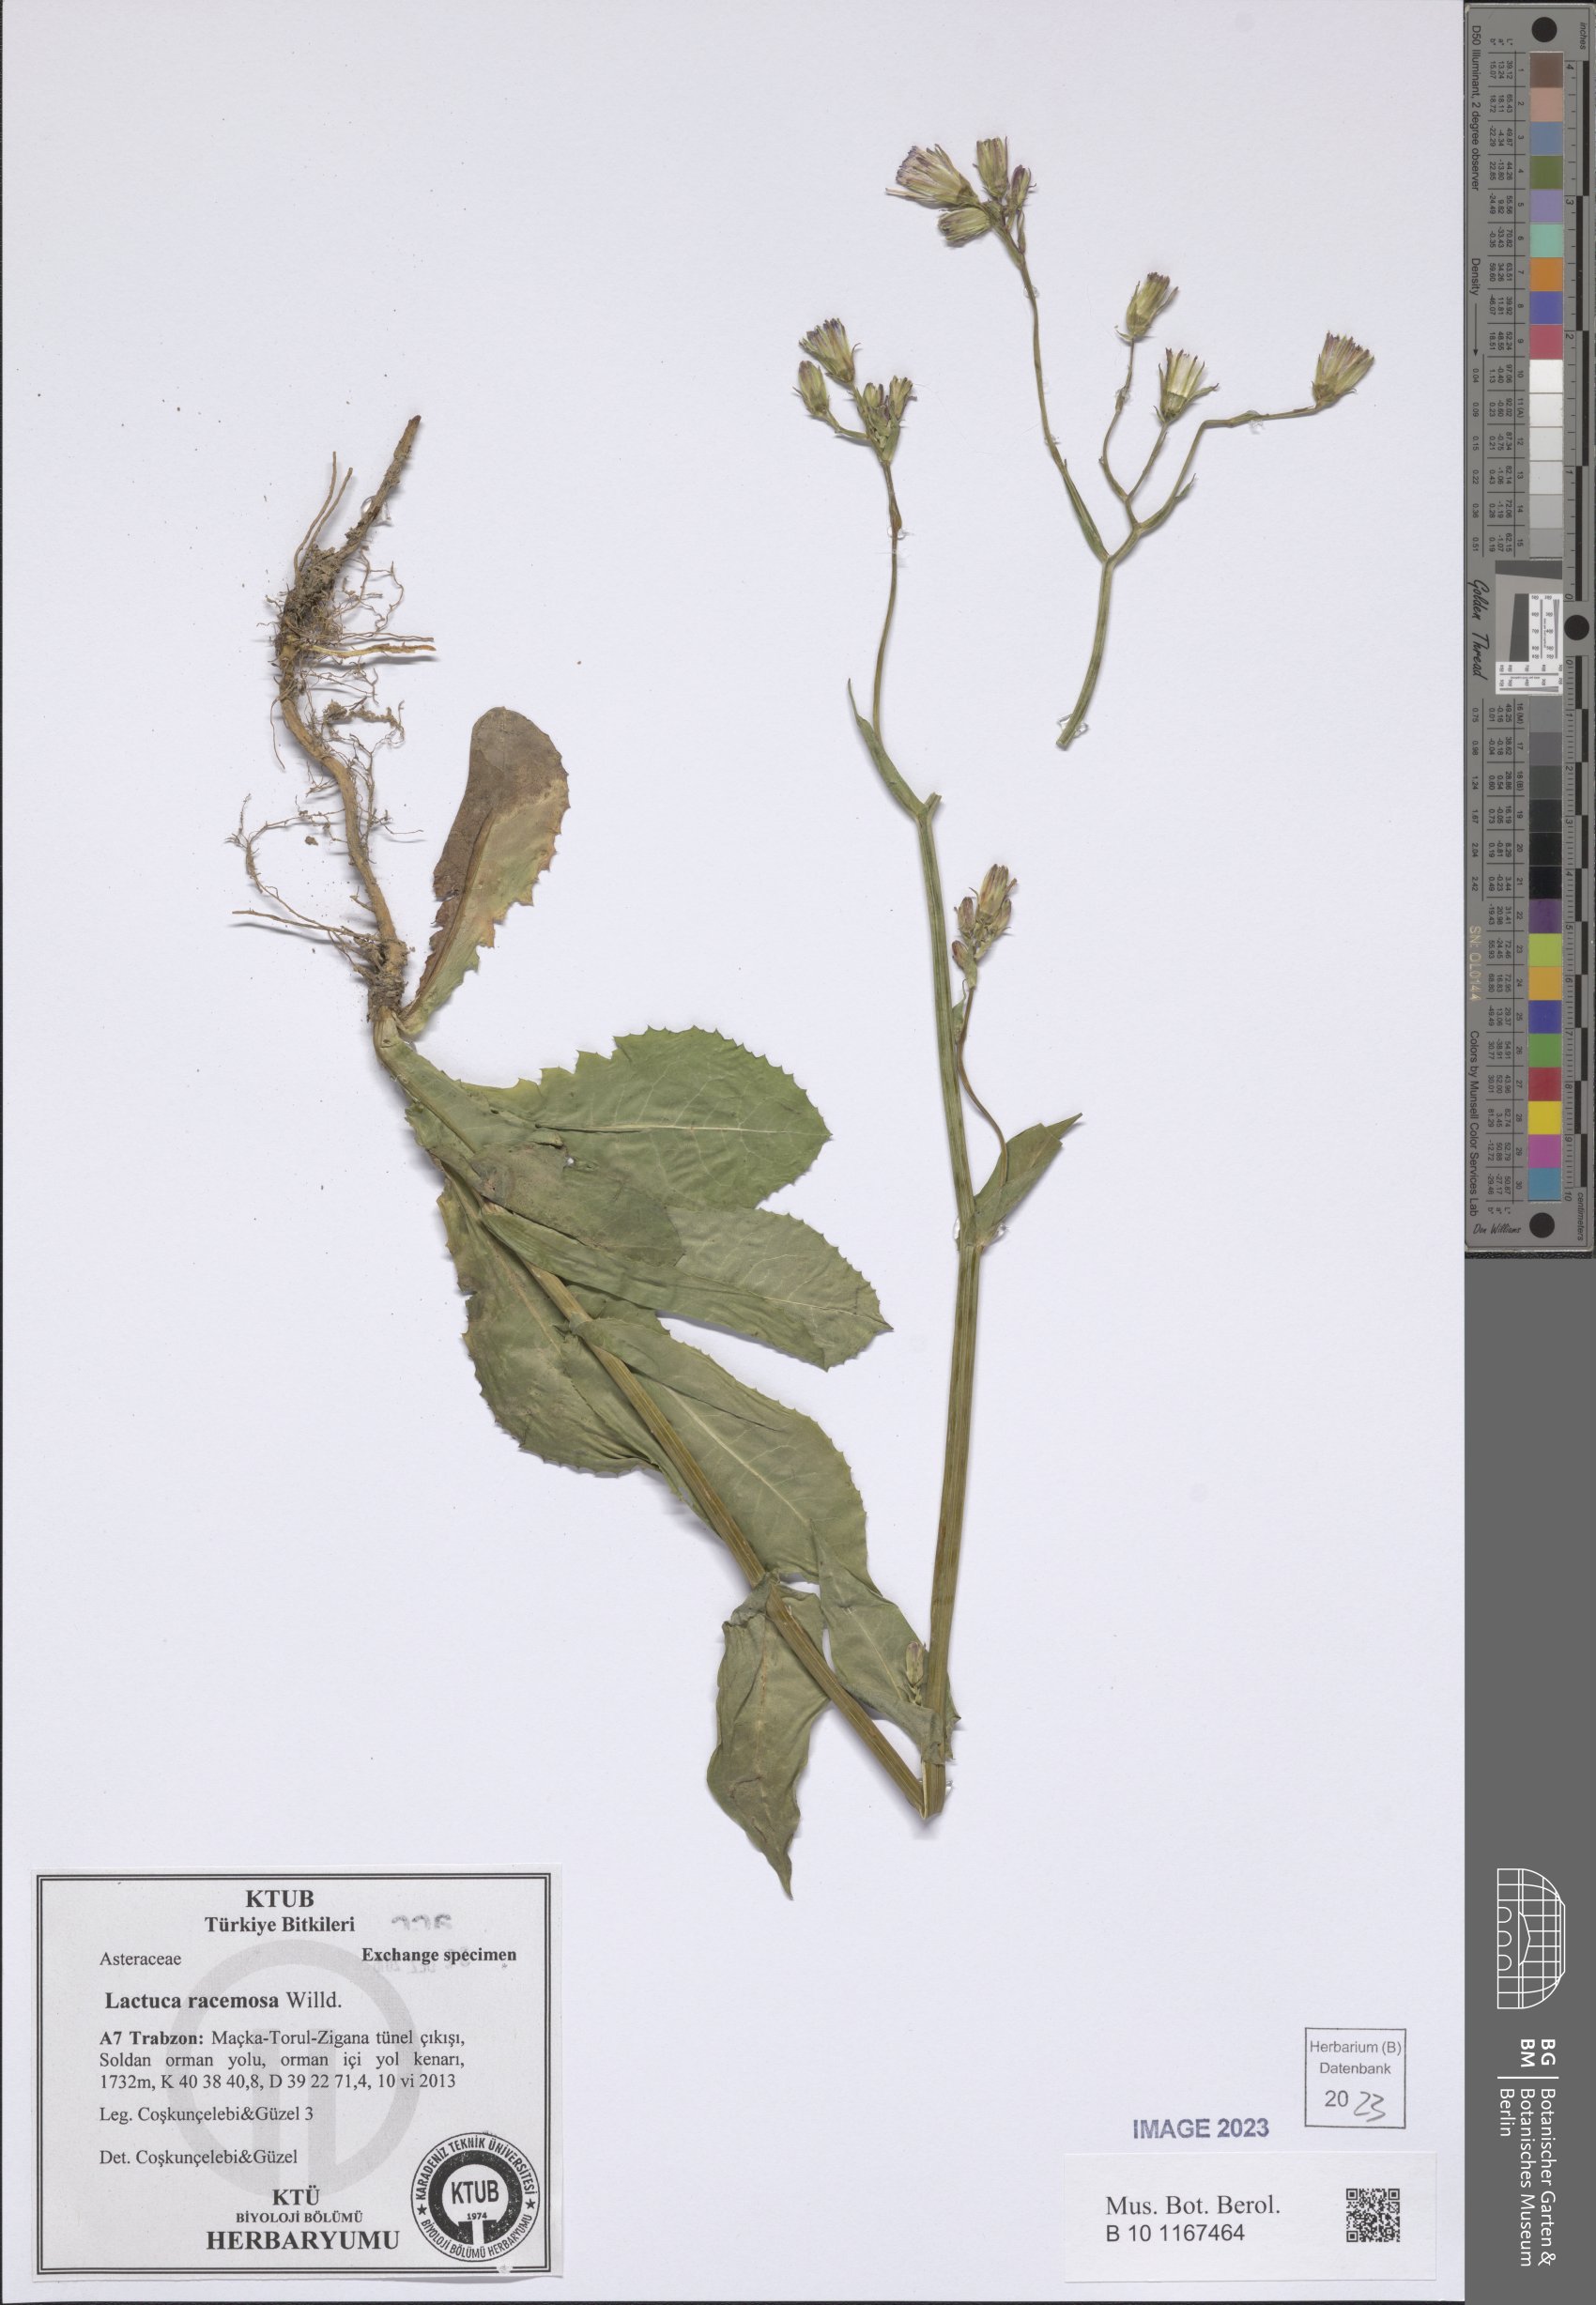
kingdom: Plantae
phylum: Tracheophyta
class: Magnoliopsida
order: Asterales
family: Asteraceae
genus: Lactuca
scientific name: Lactuca racemosa
